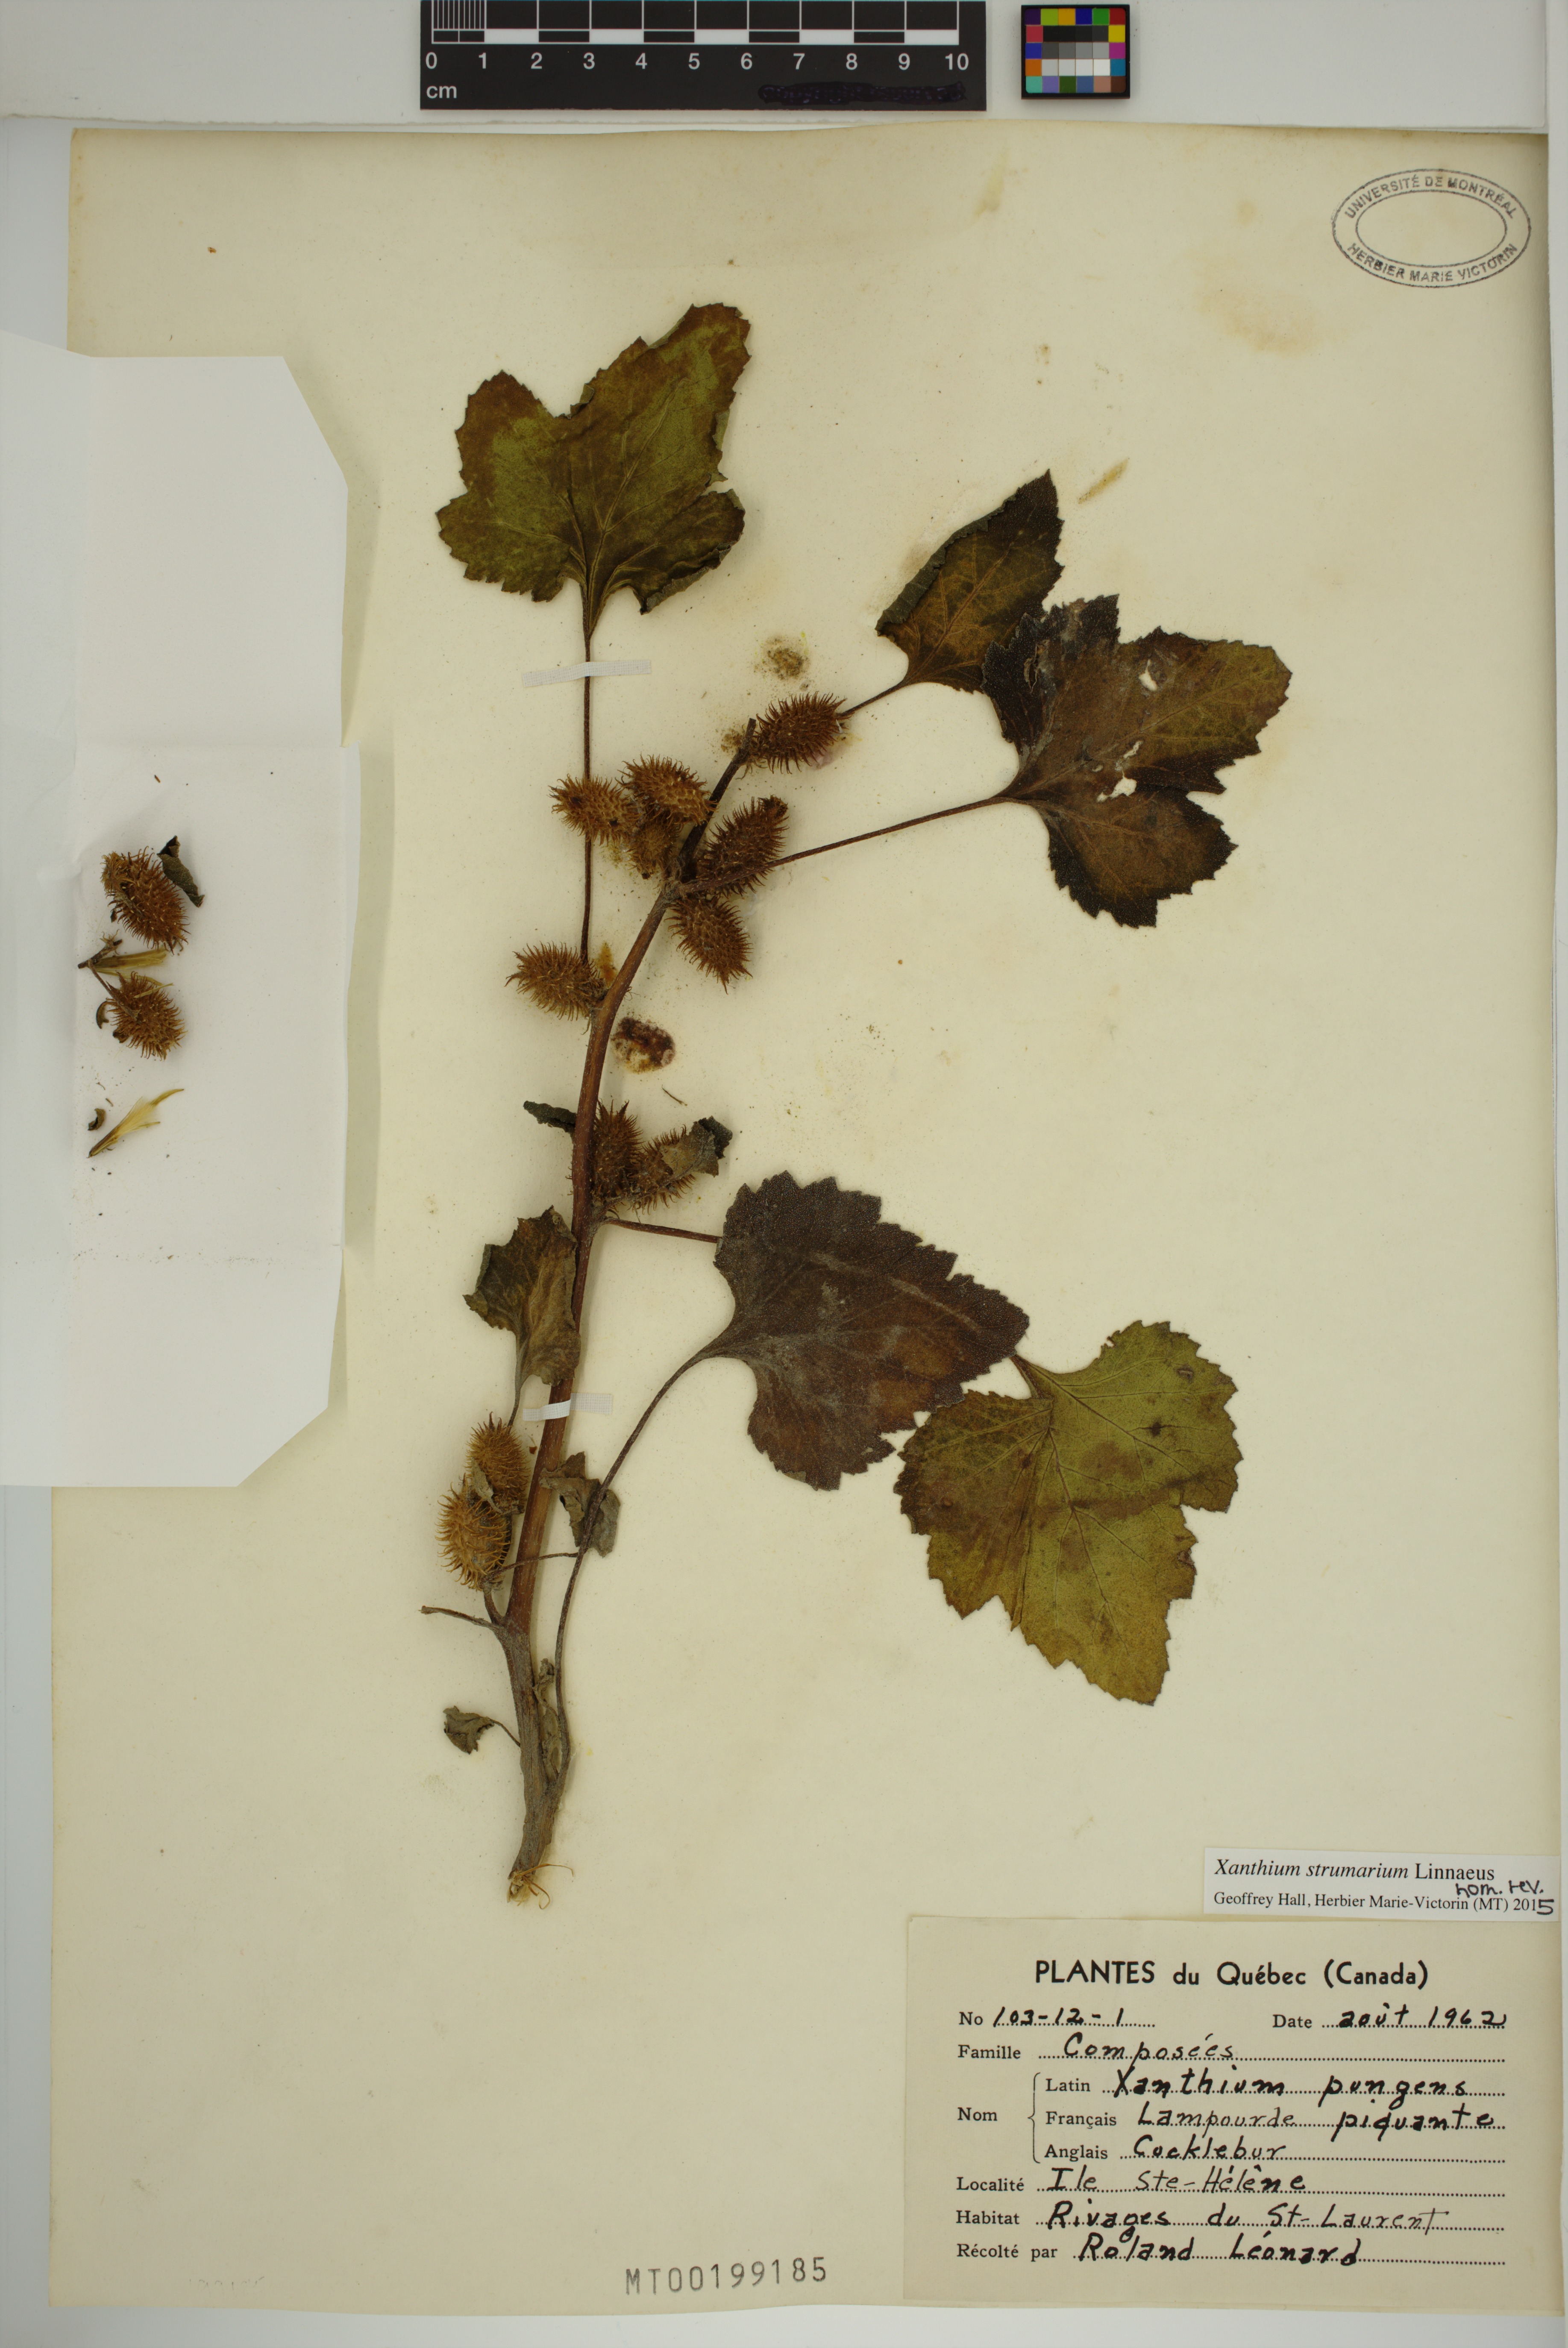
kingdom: Plantae
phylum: Tracheophyta
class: Magnoliopsida
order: Asterales
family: Asteraceae
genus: Xanthium
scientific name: Xanthium strumarium
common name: Rough cocklebur
